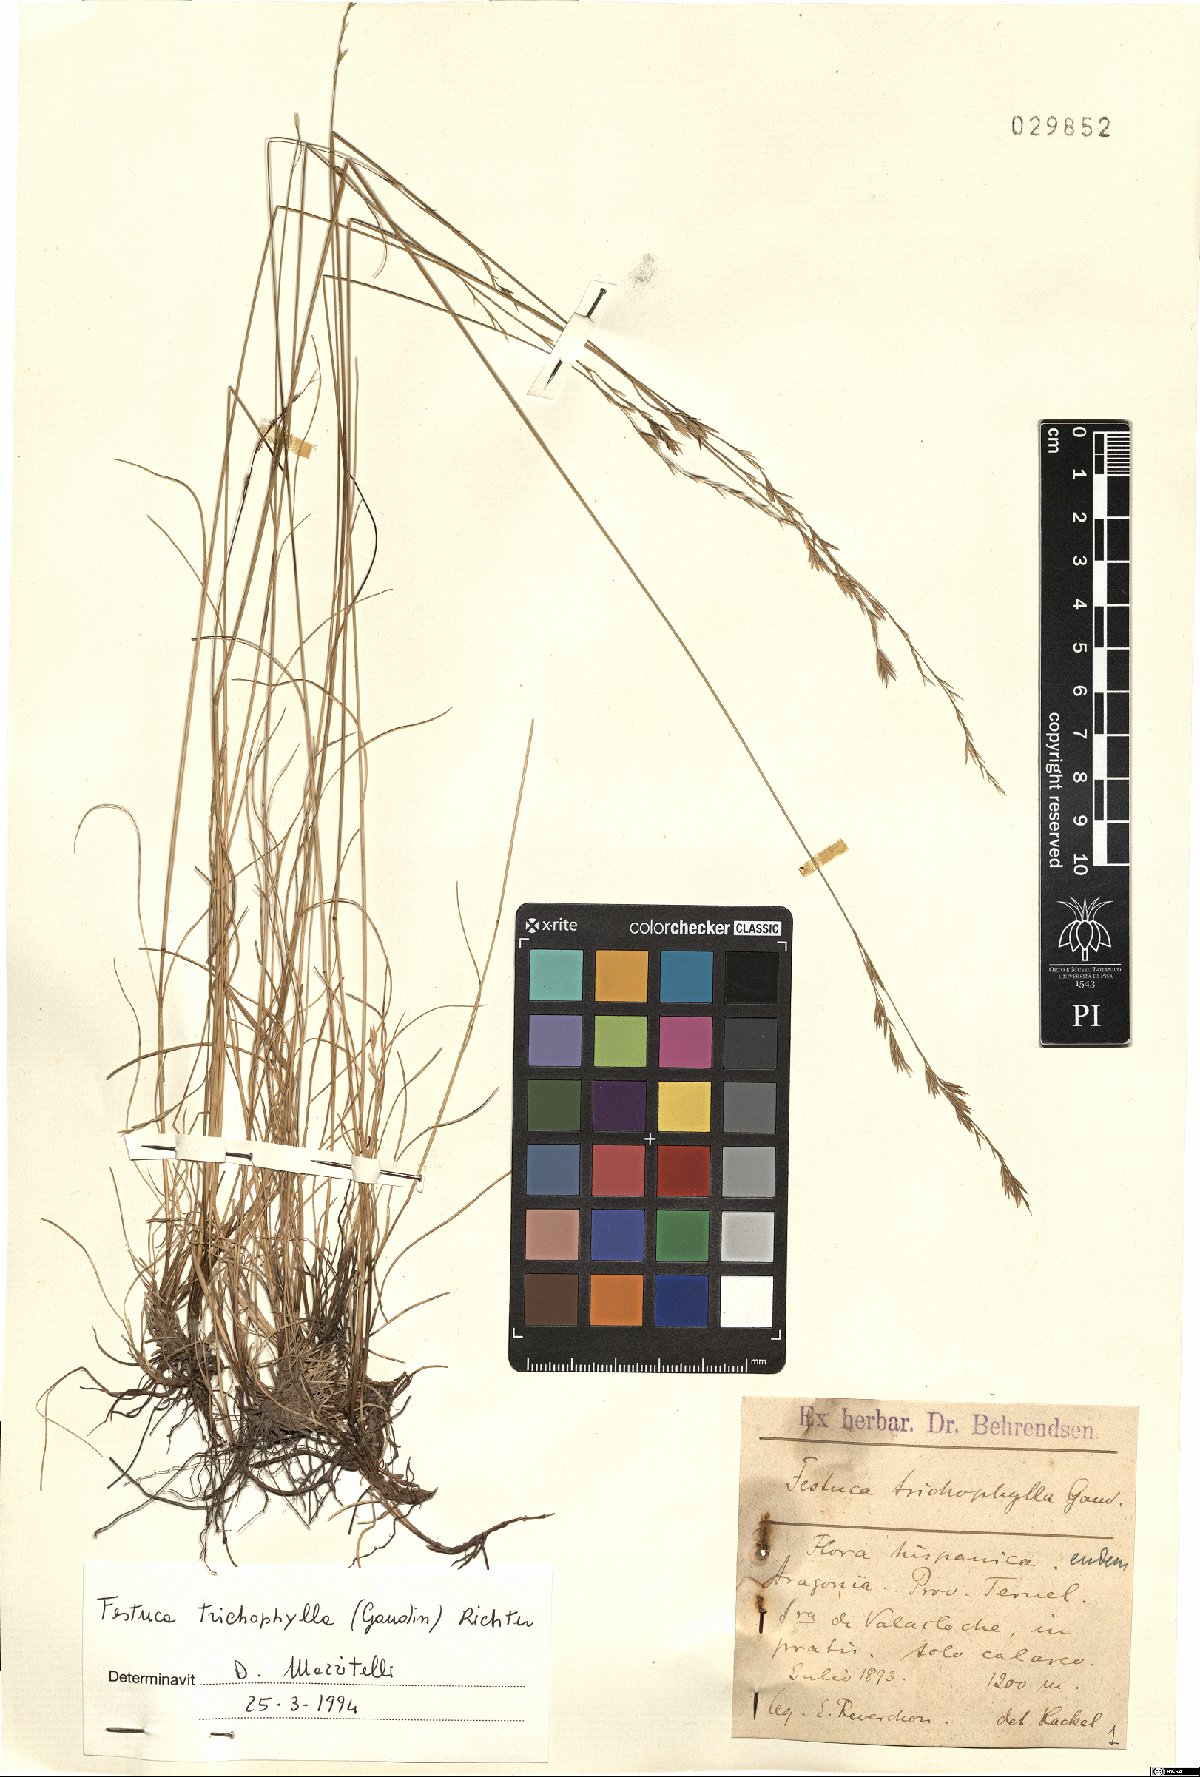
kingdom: Plantae
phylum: Tracheophyta
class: Liliopsida
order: Poales
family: Poaceae
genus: Festuca
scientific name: Festuca trichophylla
